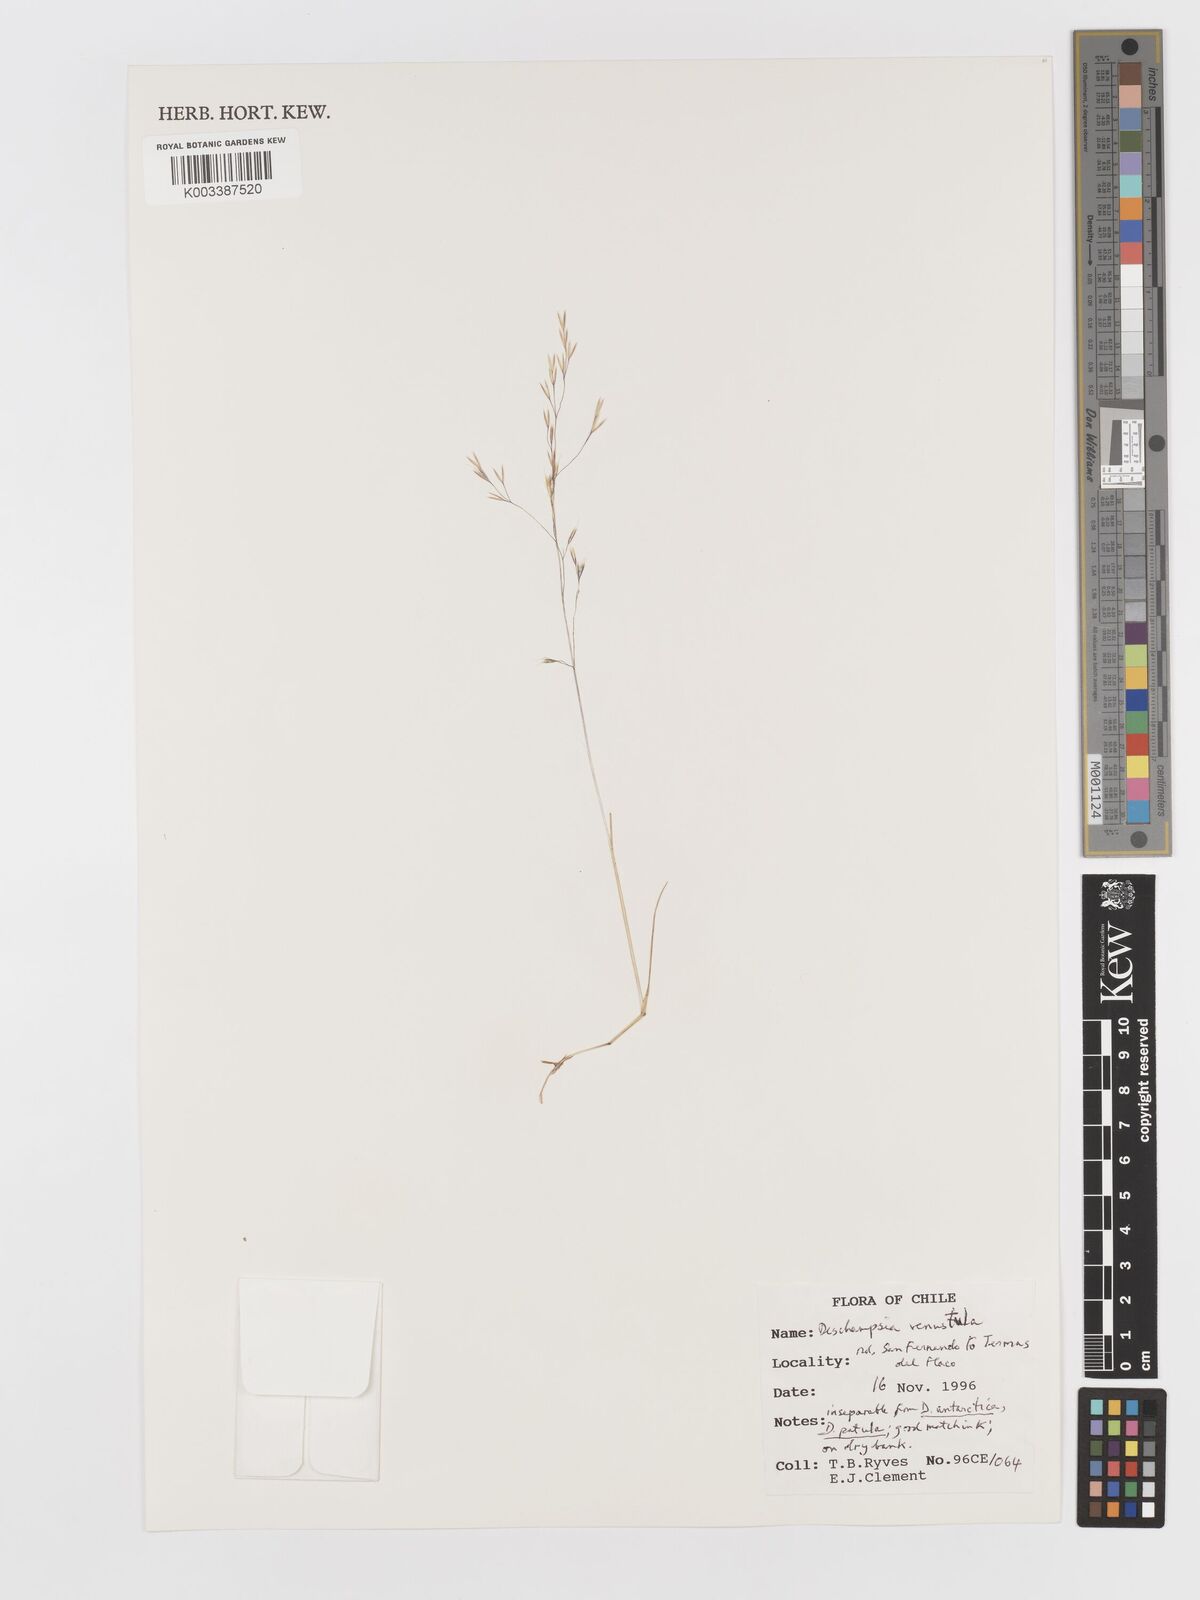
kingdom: Plantae
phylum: Tracheophyta
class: Liliopsida
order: Poales
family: Poaceae
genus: Deschampsia
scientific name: Deschampsia venustula
